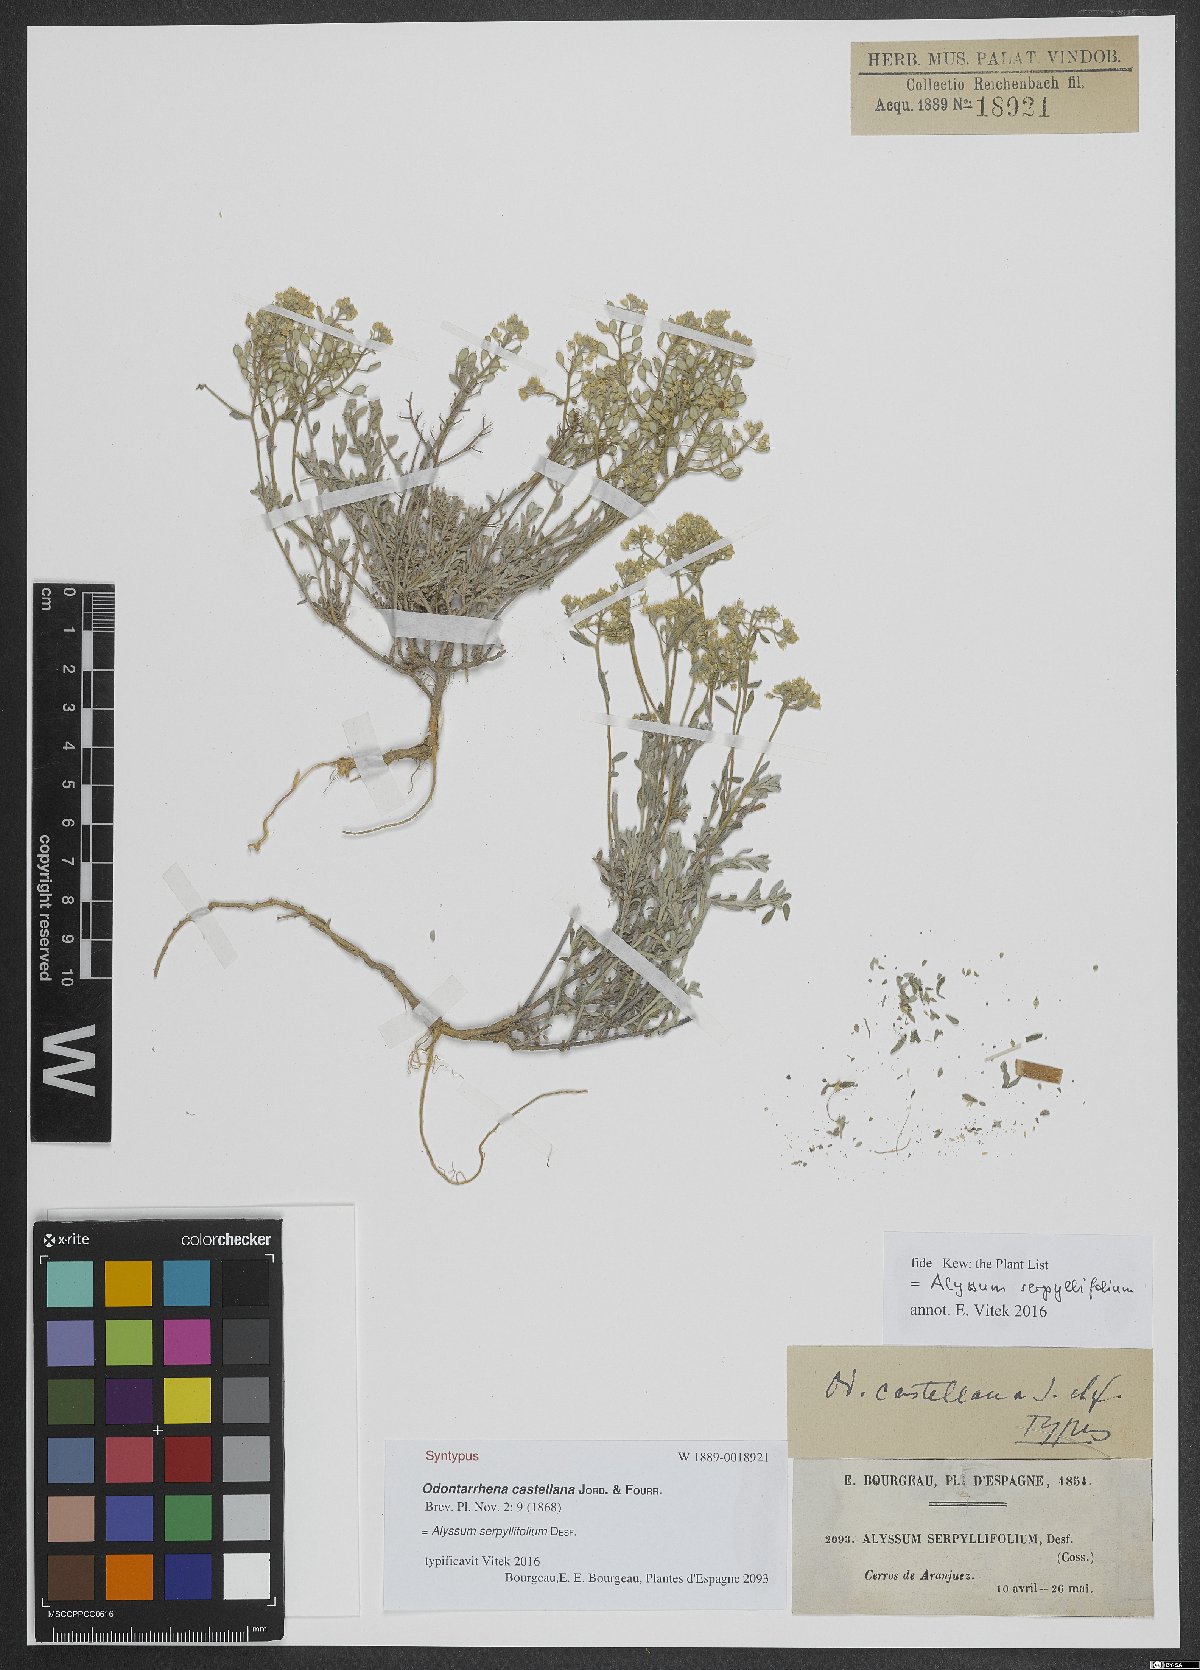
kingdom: Plantae
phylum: Tracheophyta
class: Magnoliopsida
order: Brassicales
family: Brassicaceae
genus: Odontarrhena
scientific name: Odontarrhena serpyllifolia
